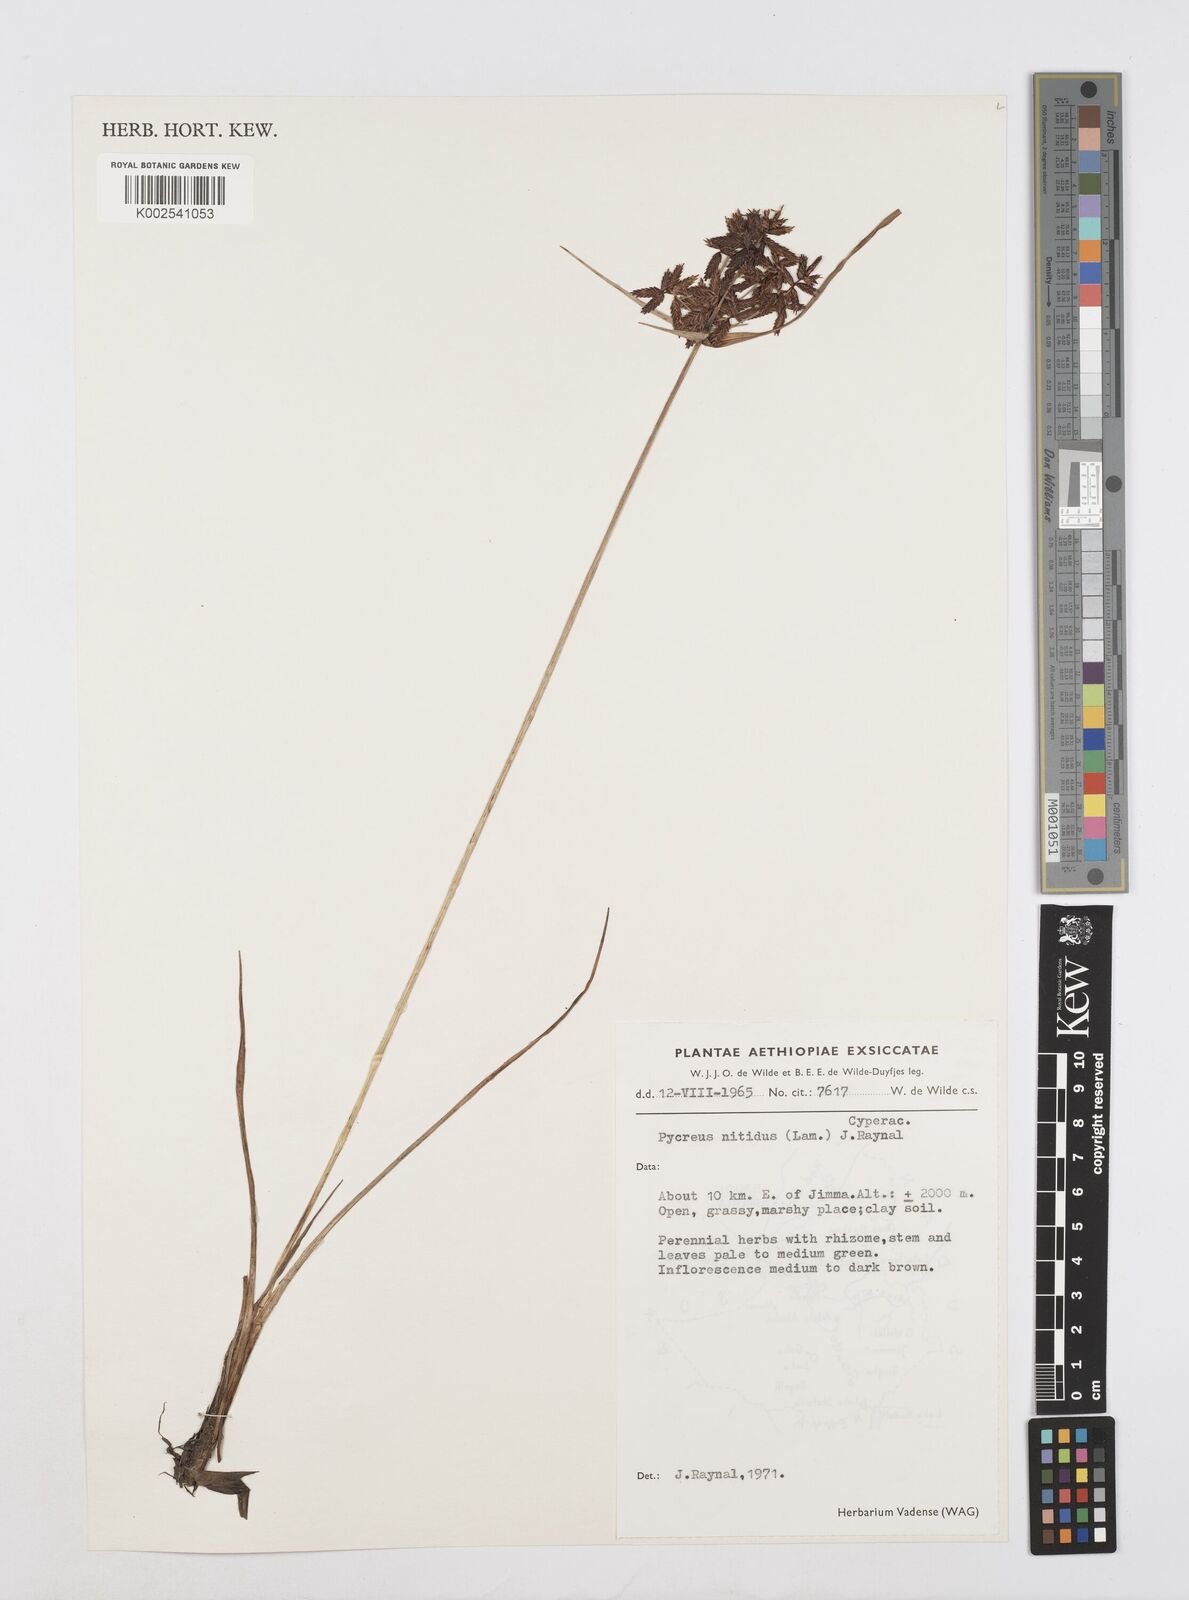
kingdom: Plantae
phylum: Tracheophyta
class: Liliopsida
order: Poales
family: Cyperaceae
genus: Cyperus
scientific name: Cyperus nitidus
